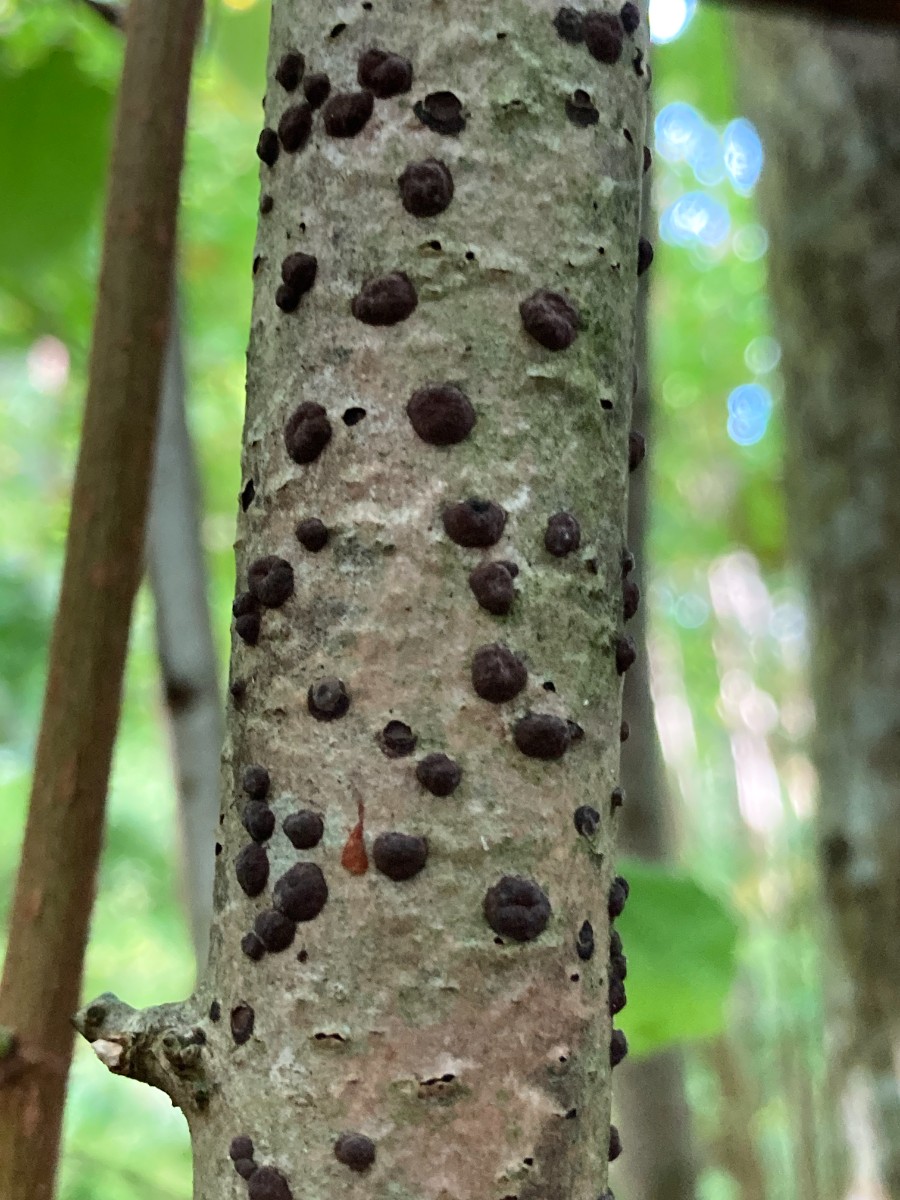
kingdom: Fungi
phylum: Ascomycota
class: Sordariomycetes
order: Xylariales
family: Hypoxylaceae
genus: Hypoxylon
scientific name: Hypoxylon fuscum
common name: kegleformet kulbær
